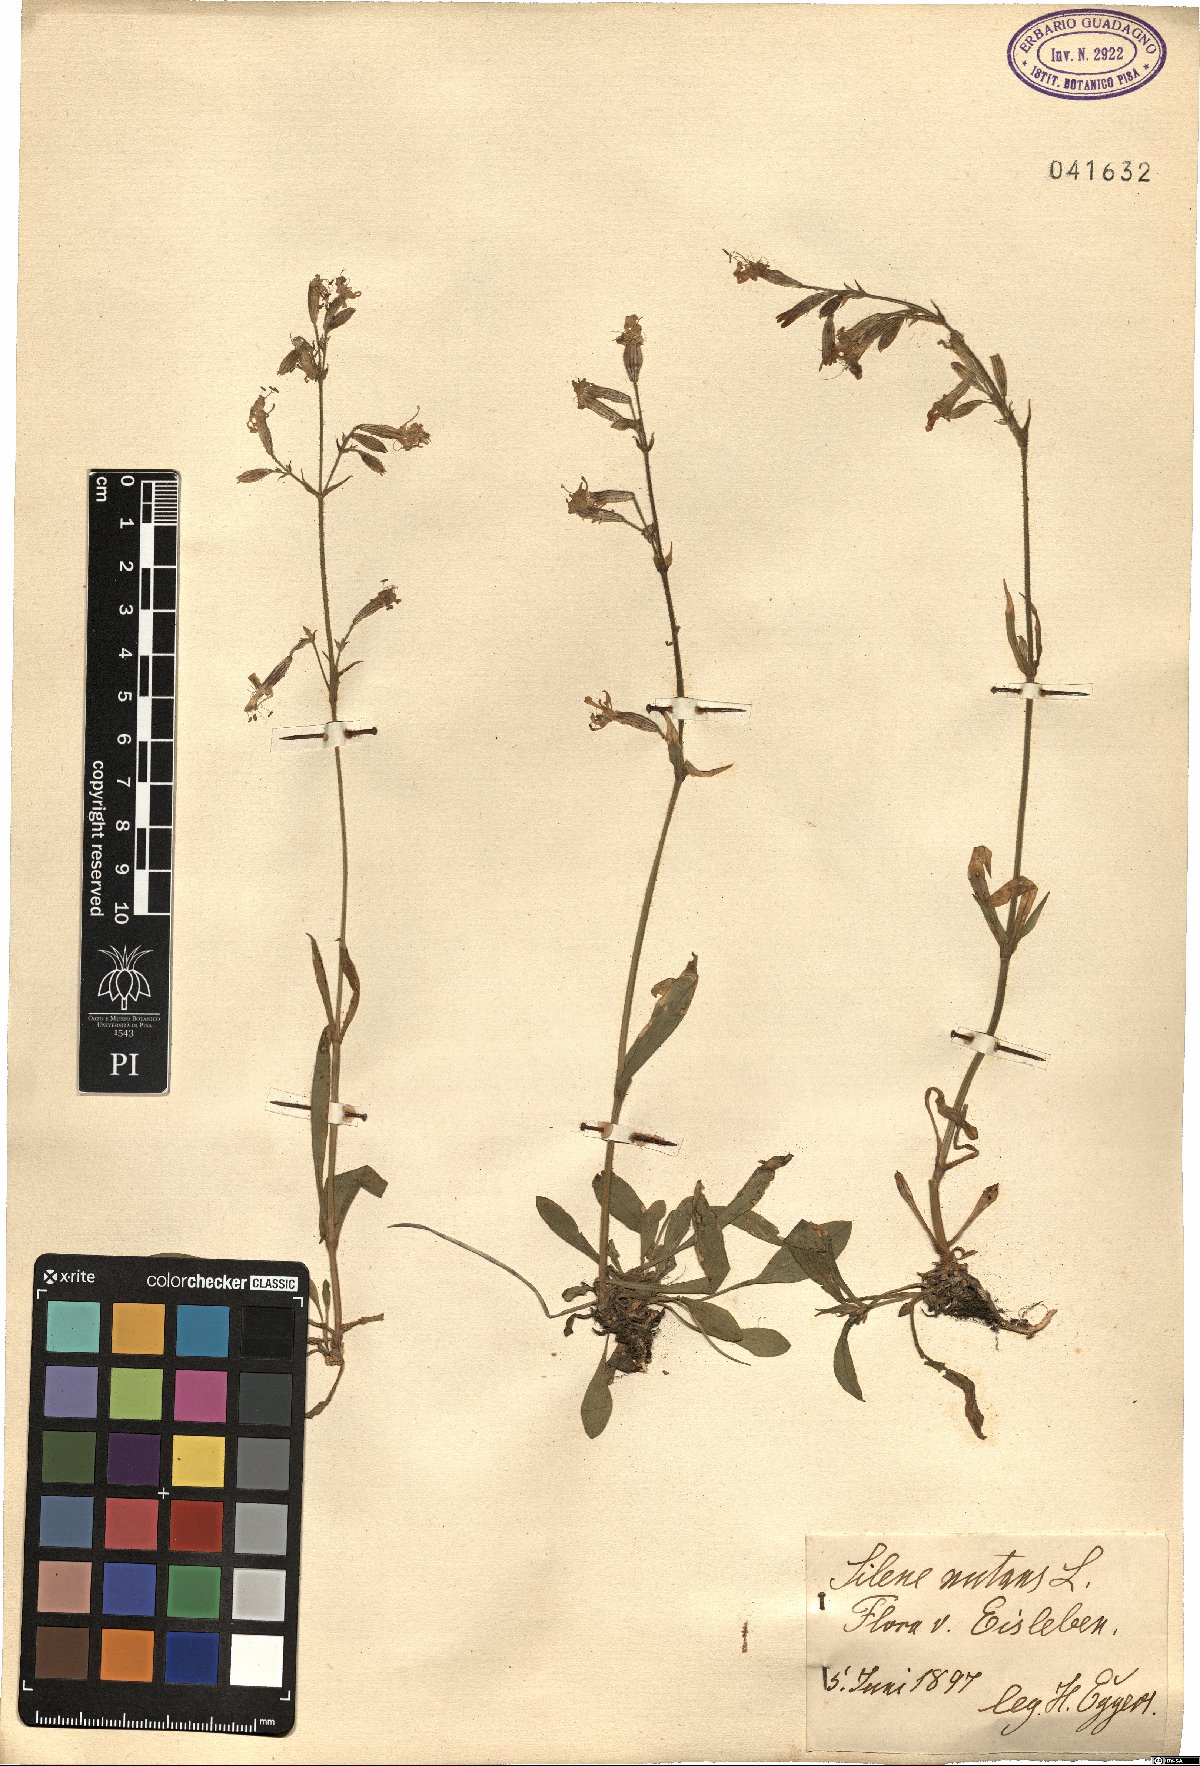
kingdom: Plantae
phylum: Tracheophyta
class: Magnoliopsida
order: Caryophyllales
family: Caryophyllaceae
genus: Silene
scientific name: Silene nutans
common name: Nottingham catchfly
